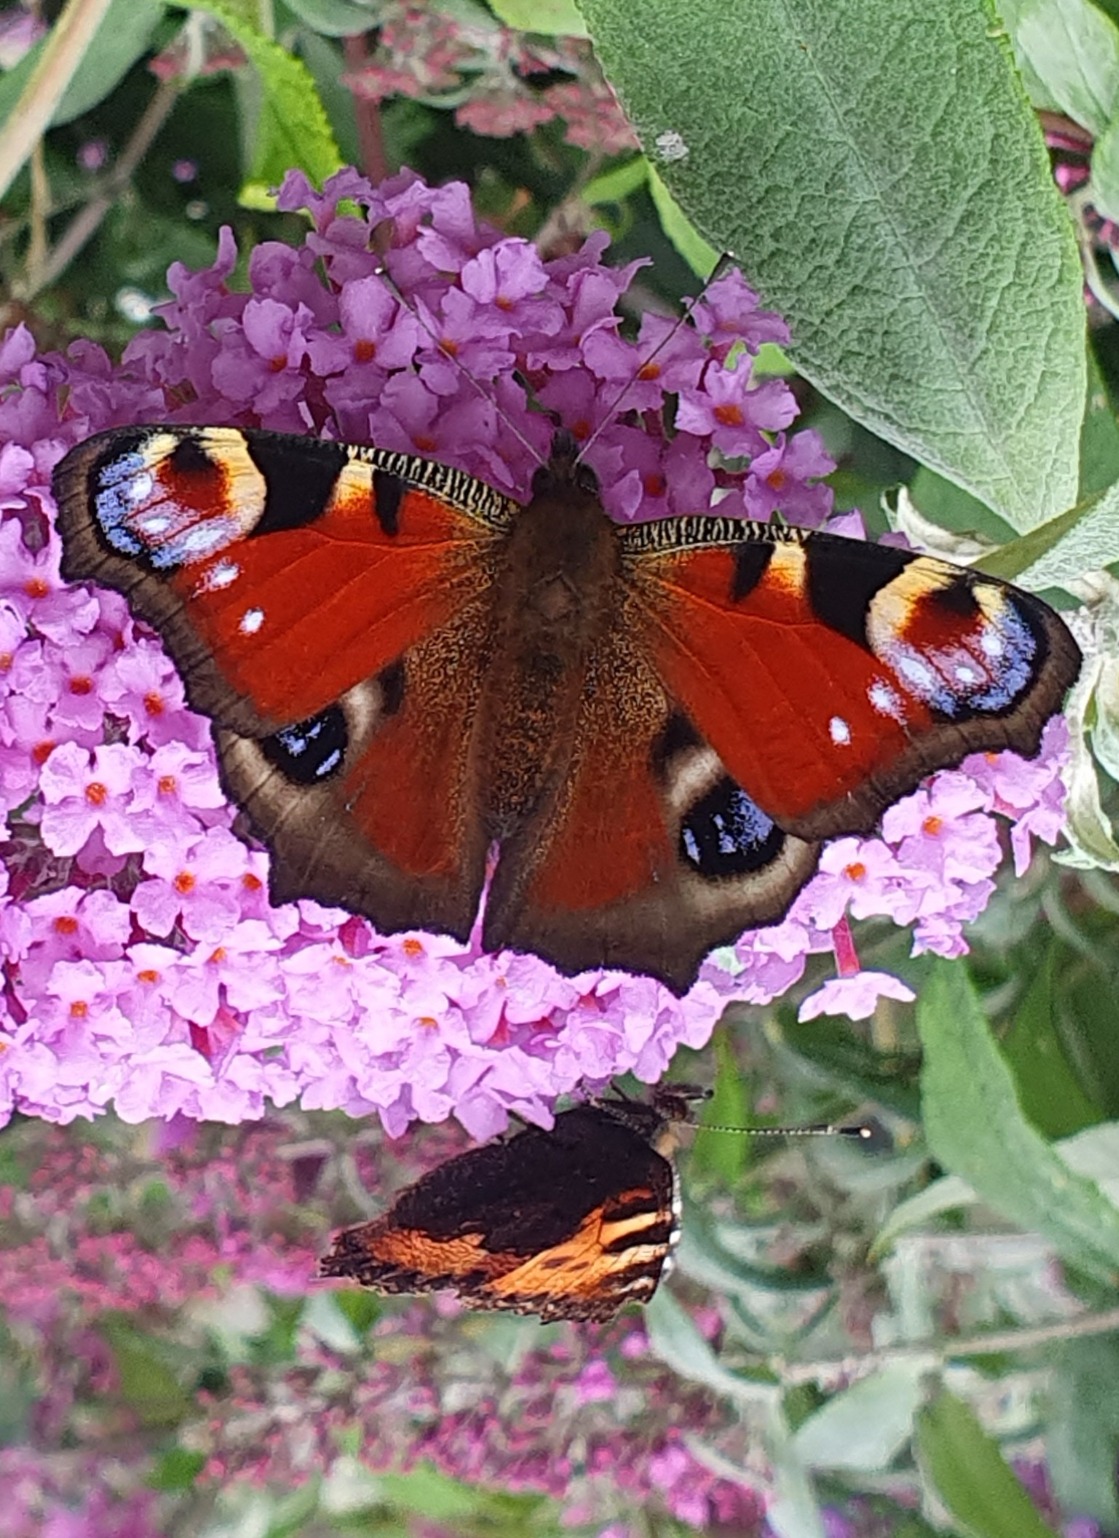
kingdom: Animalia
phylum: Arthropoda
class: Insecta
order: Lepidoptera
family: Nymphalidae
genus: Aglais
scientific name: Aglais io
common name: Dagpåfugleøje
